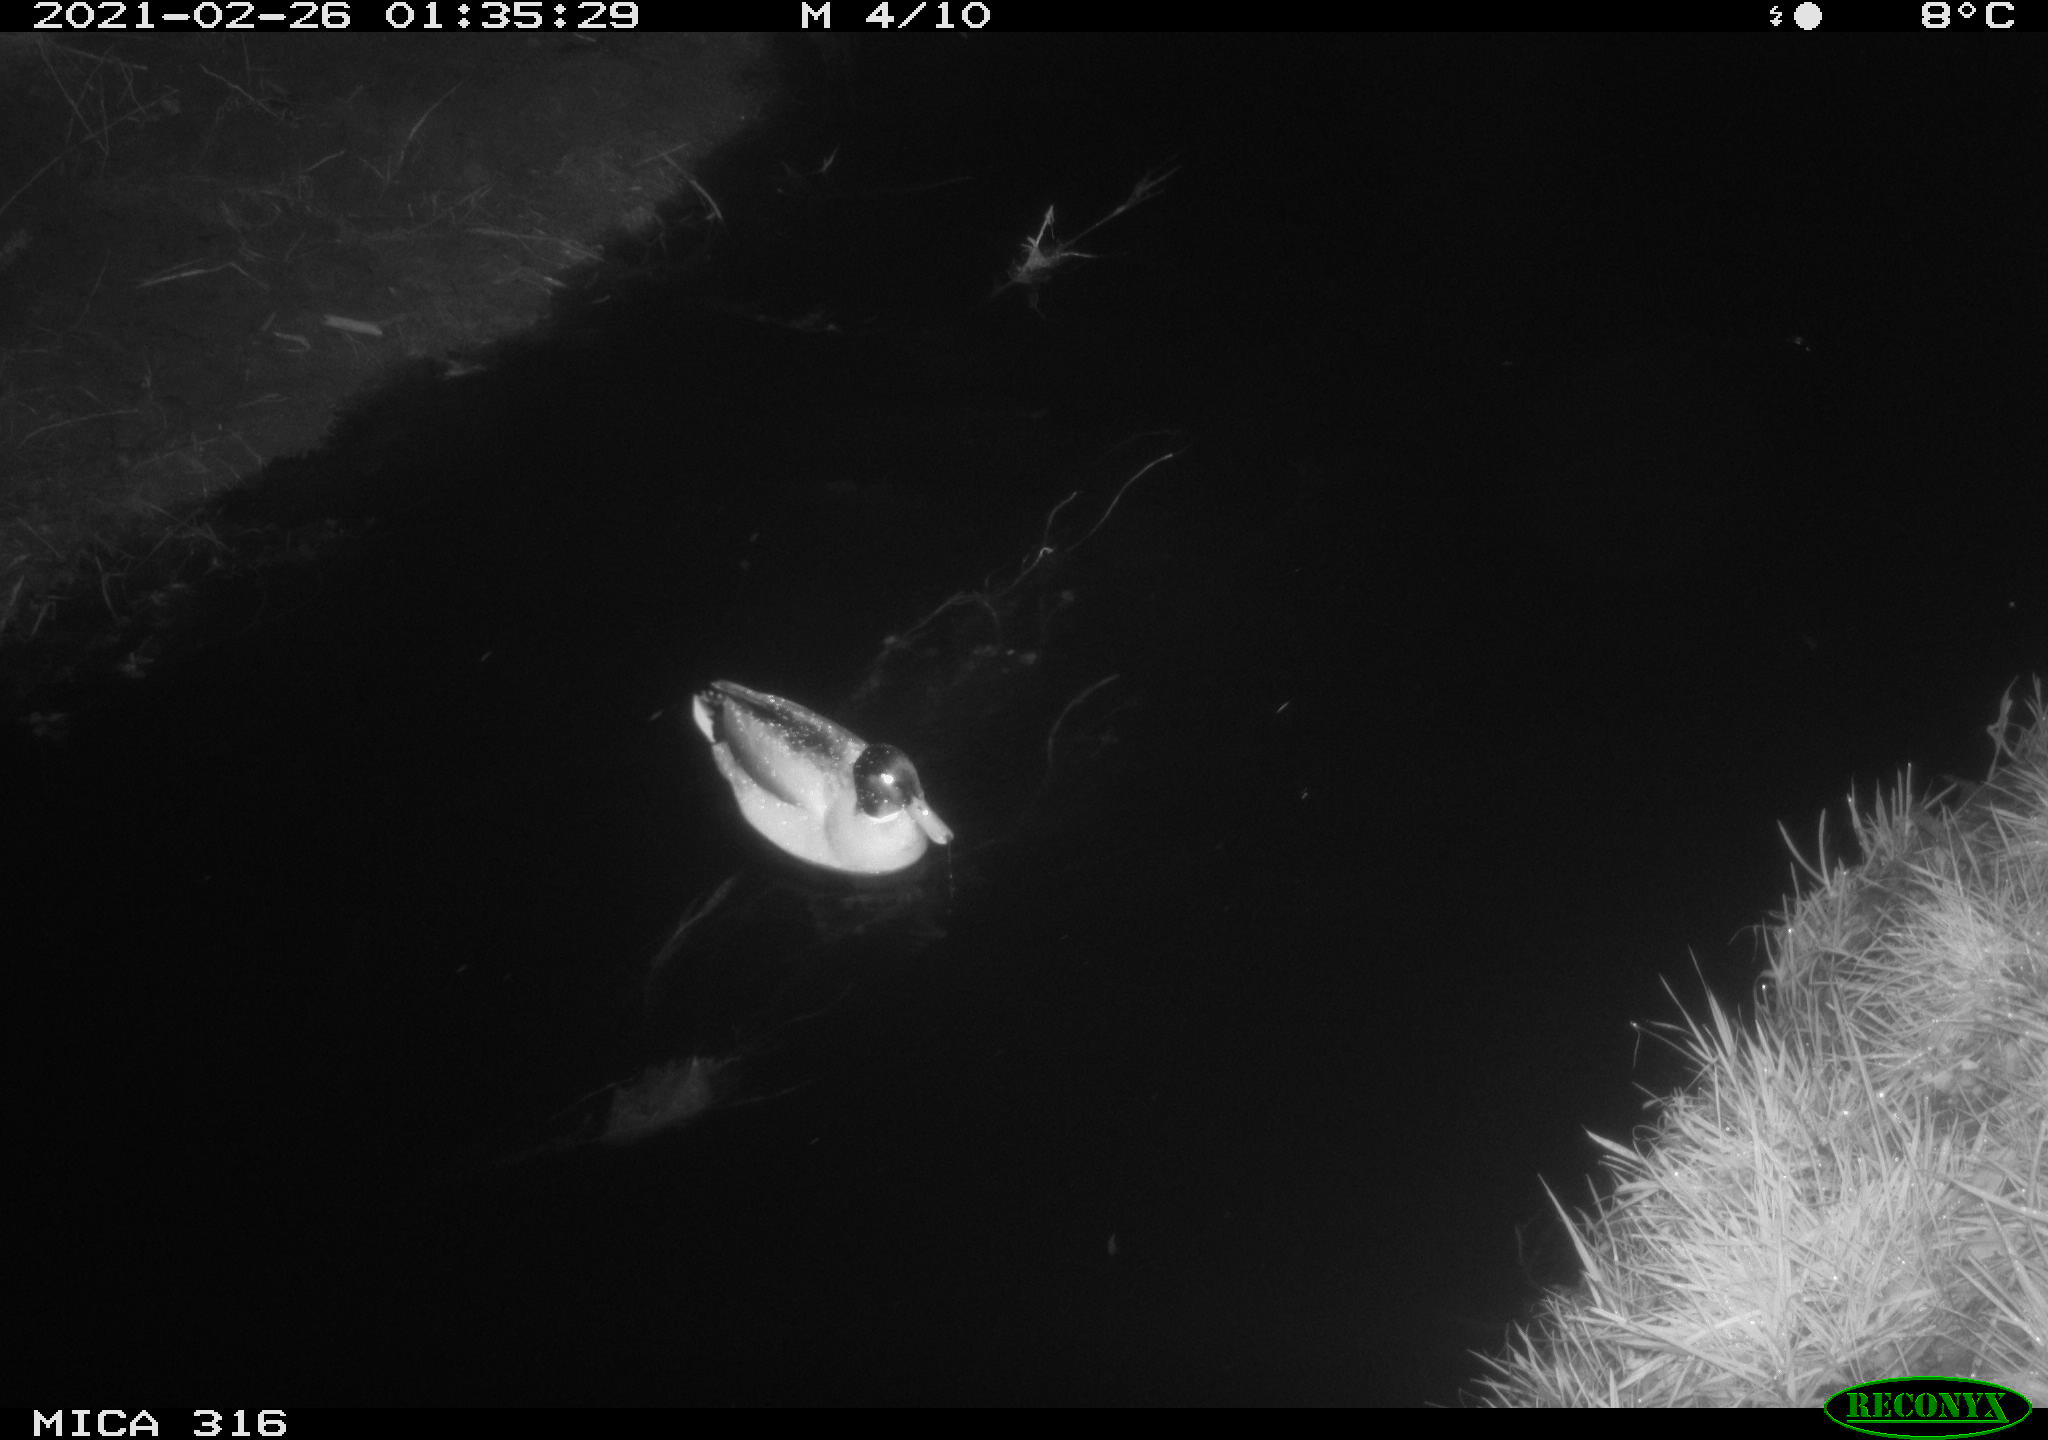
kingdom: Animalia
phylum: Chordata
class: Aves
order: Anseriformes
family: Anatidae
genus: Anas
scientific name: Anas platyrhynchos
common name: Mallard
